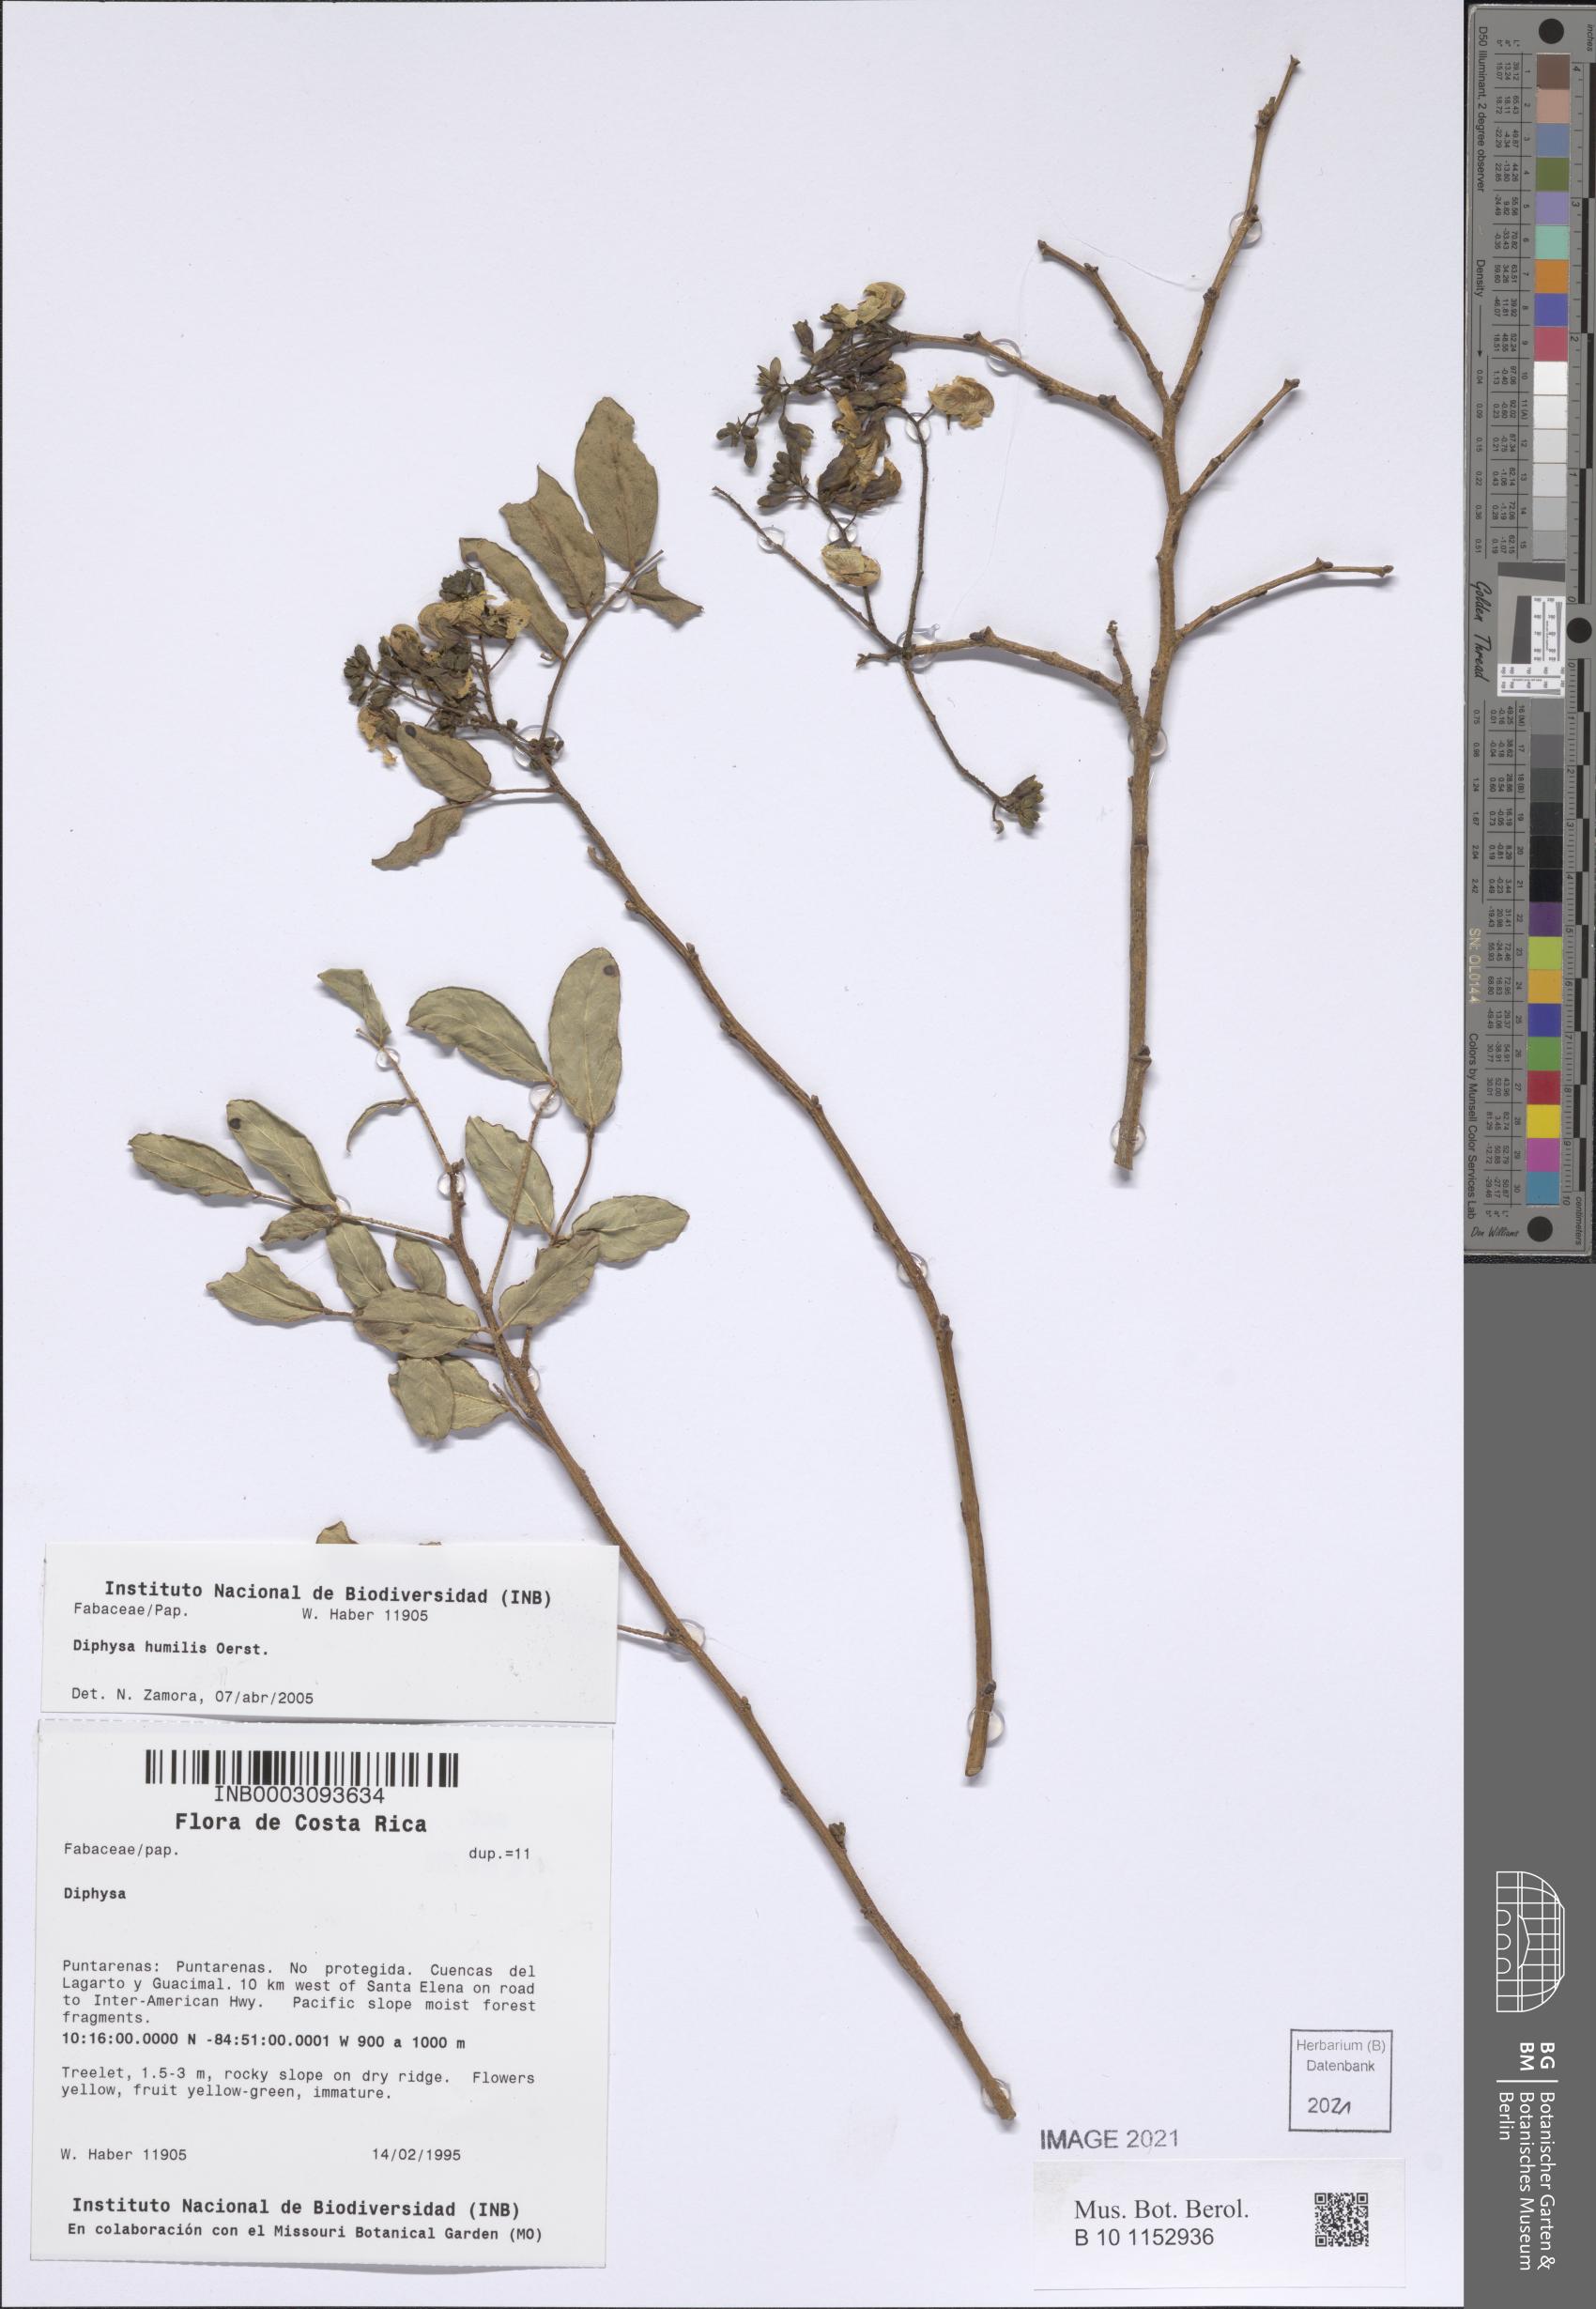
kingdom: Plantae
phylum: Tracheophyta
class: Magnoliopsida
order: Fabales
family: Fabaceae
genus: Diphysa
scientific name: Diphysa humilis
